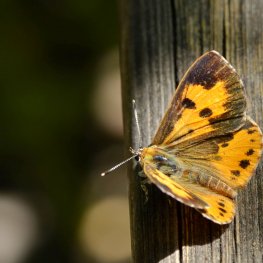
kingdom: Animalia
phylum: Arthropoda
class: Insecta
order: Lepidoptera
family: Lycaenidae
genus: Feniseca
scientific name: Feniseca tarquinius
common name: Harvester
